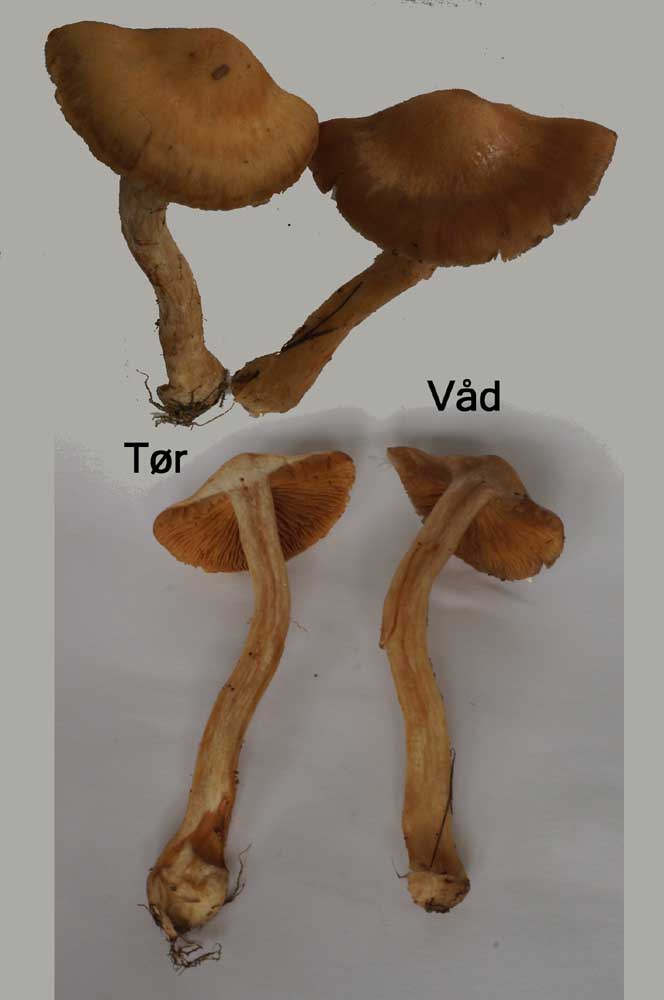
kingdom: Fungi
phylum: Basidiomycota
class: Agaricomycetes
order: Agaricales
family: Cortinariaceae
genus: Cortinarius
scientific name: Cortinarius bivelus
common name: orangebrun slørhat
